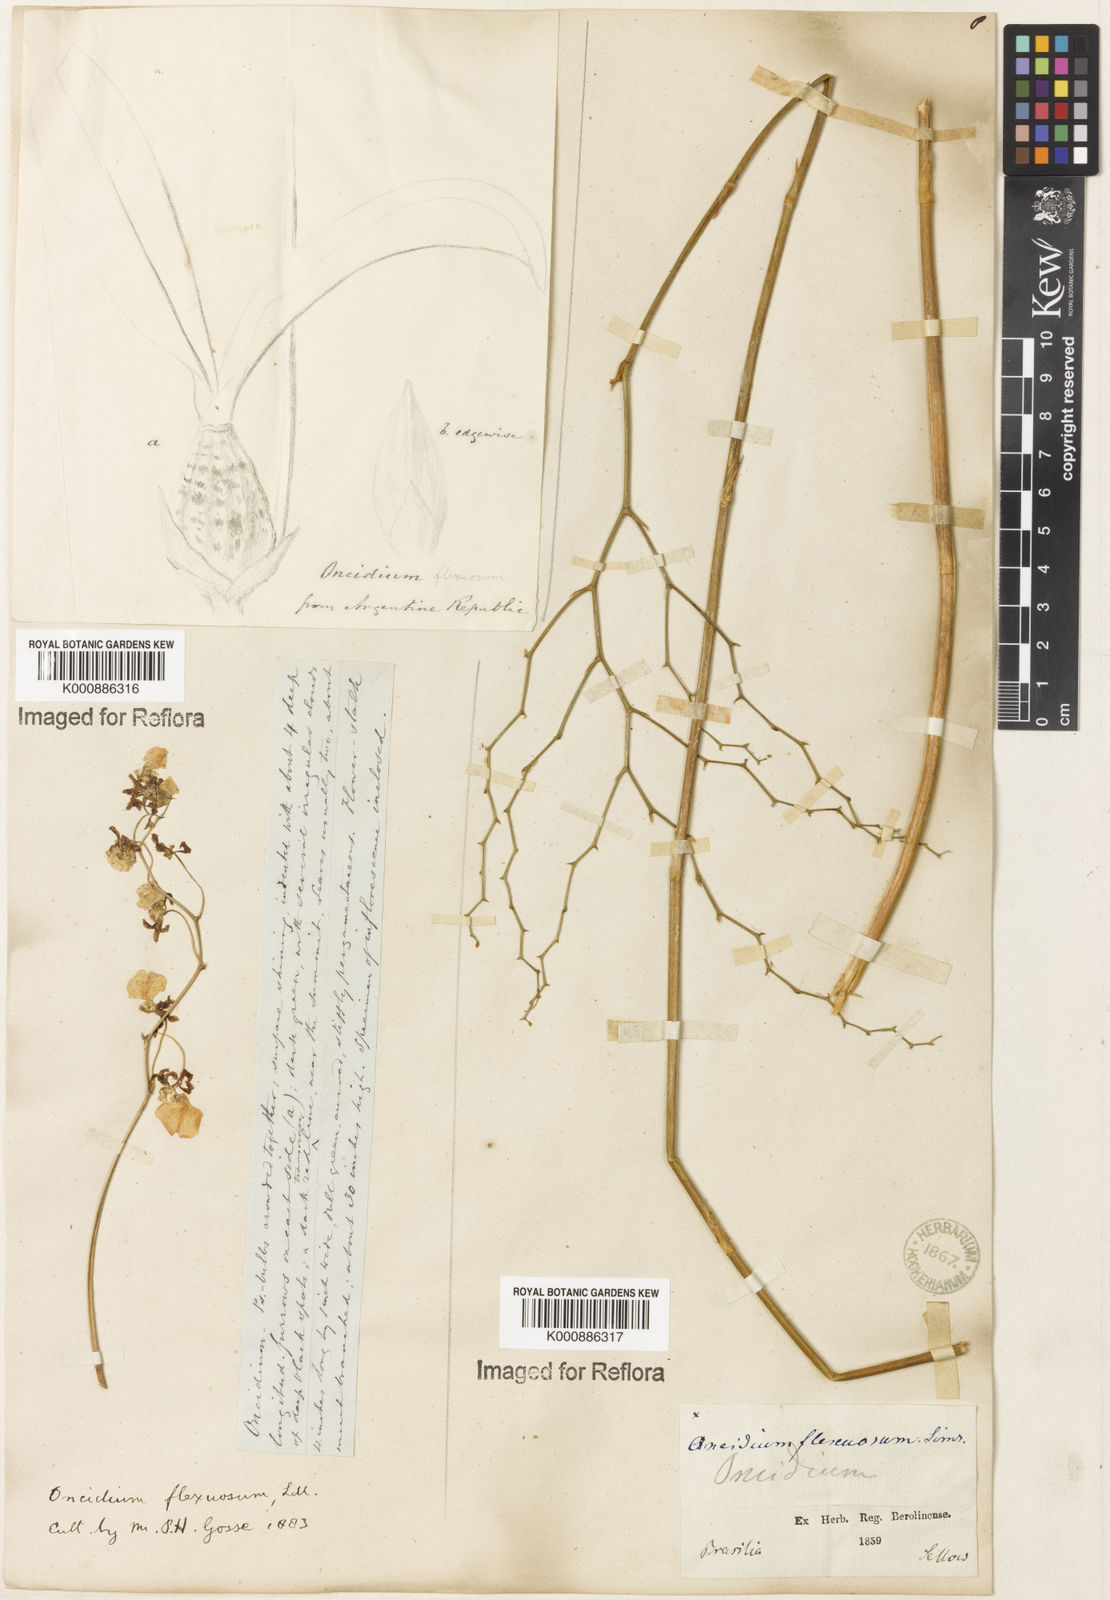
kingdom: Plantae
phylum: Tracheophyta
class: Liliopsida
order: Asparagales
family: Orchidaceae
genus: Gomesa
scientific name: Gomesa flexuosa
